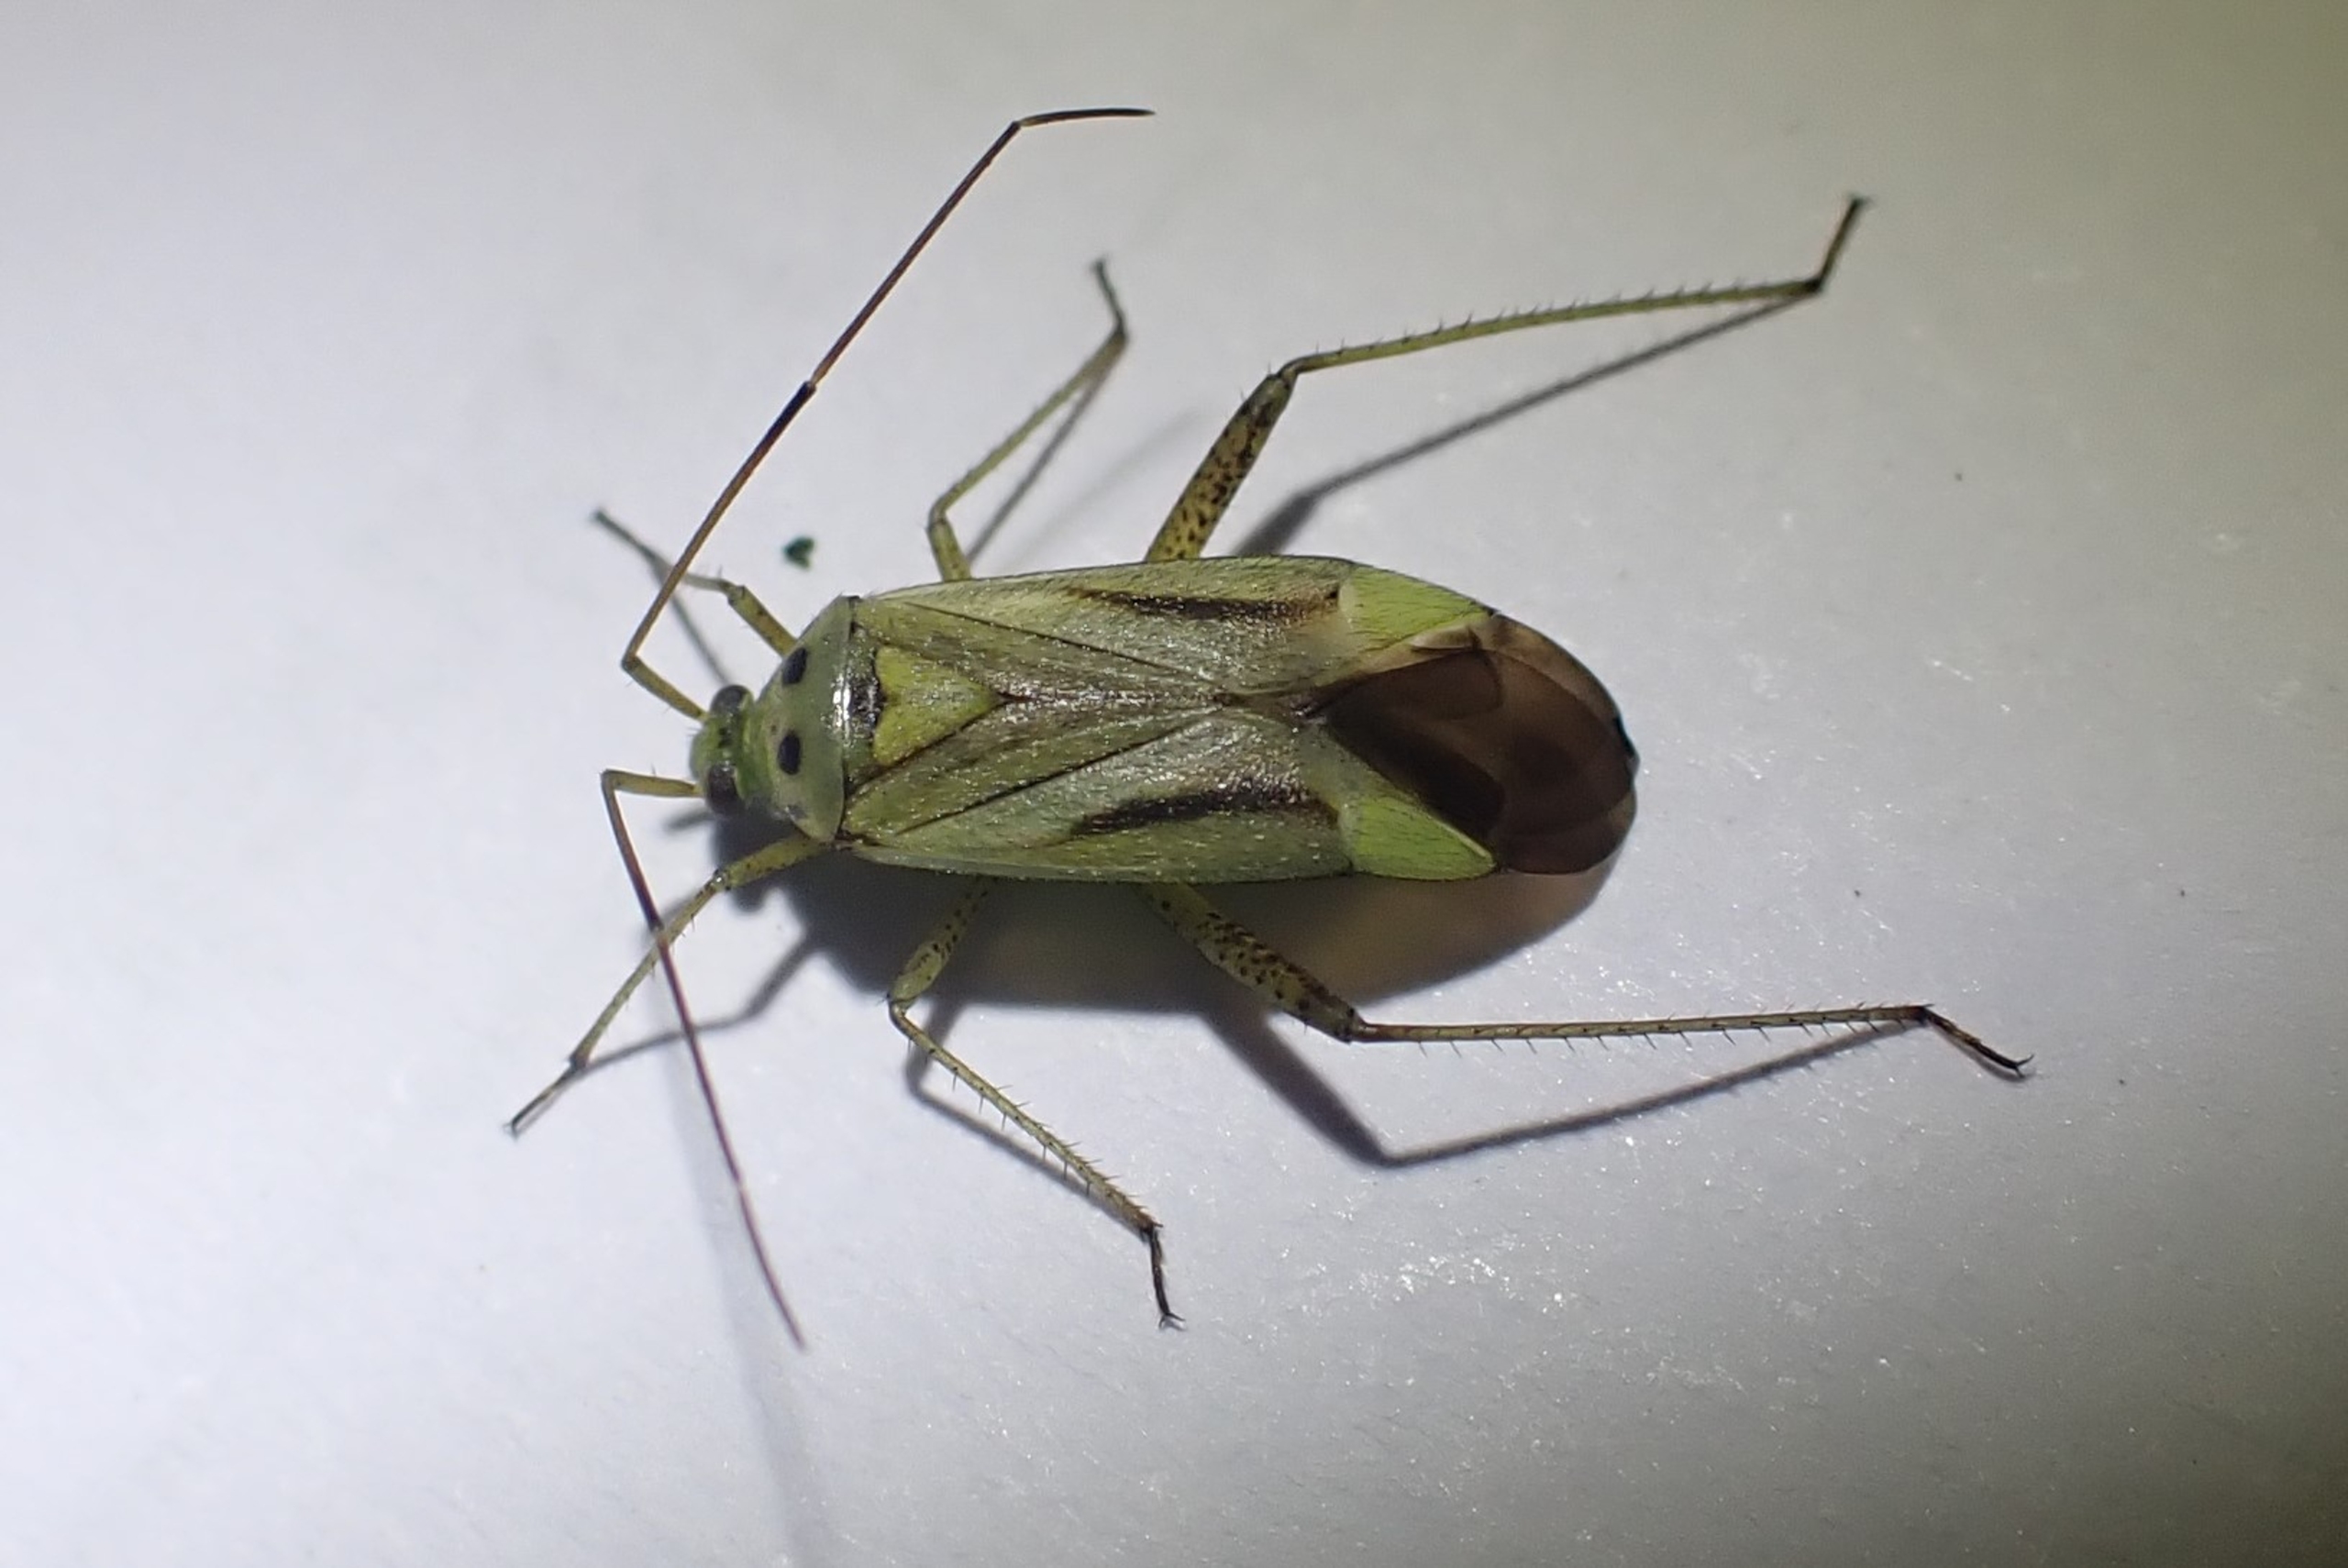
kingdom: Animalia
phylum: Arthropoda
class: Insecta
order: Hemiptera
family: Miridae
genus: Adelphocoris
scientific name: Adelphocoris quadripunctatus
